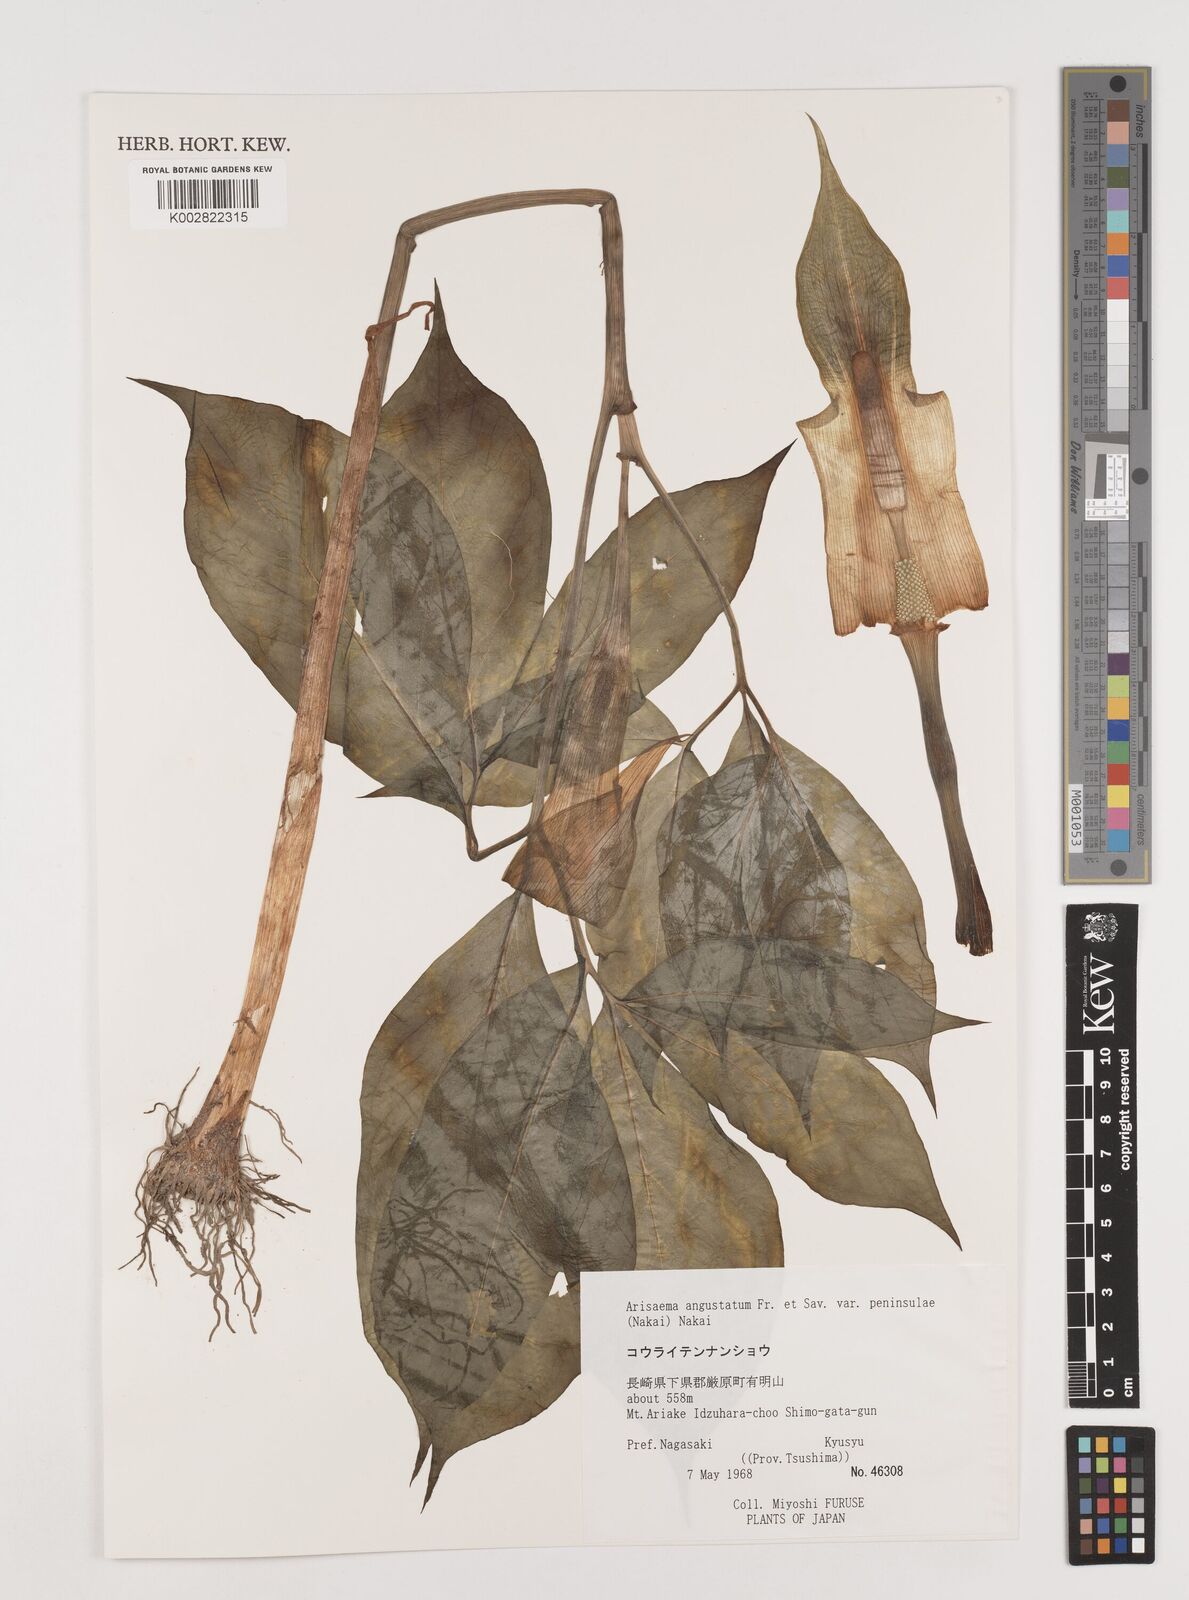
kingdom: Plantae
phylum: Tracheophyta
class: Liliopsida
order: Alismatales
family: Araceae
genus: Arisaema
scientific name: Arisaema angustatum
